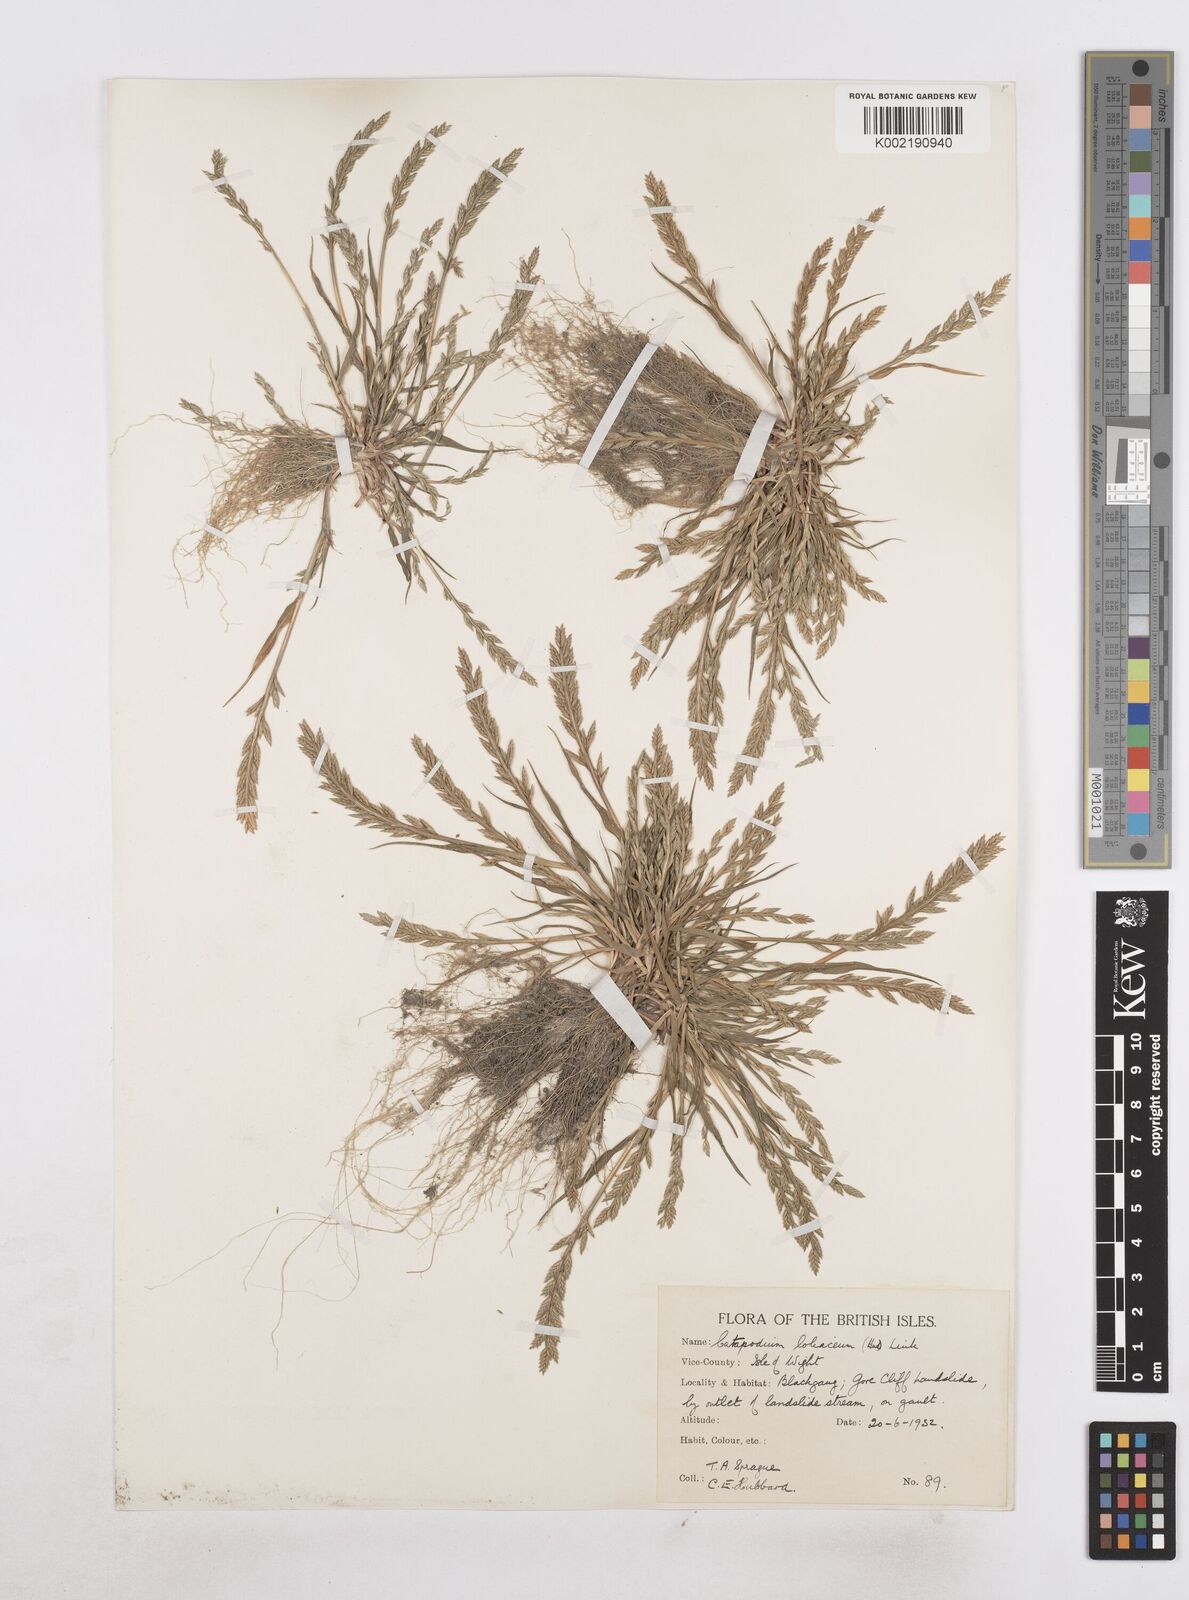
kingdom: Plantae
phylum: Tracheophyta
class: Liliopsida
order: Poales
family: Poaceae
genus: Catapodium
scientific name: Catapodium marinum
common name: Sea fern-grass
